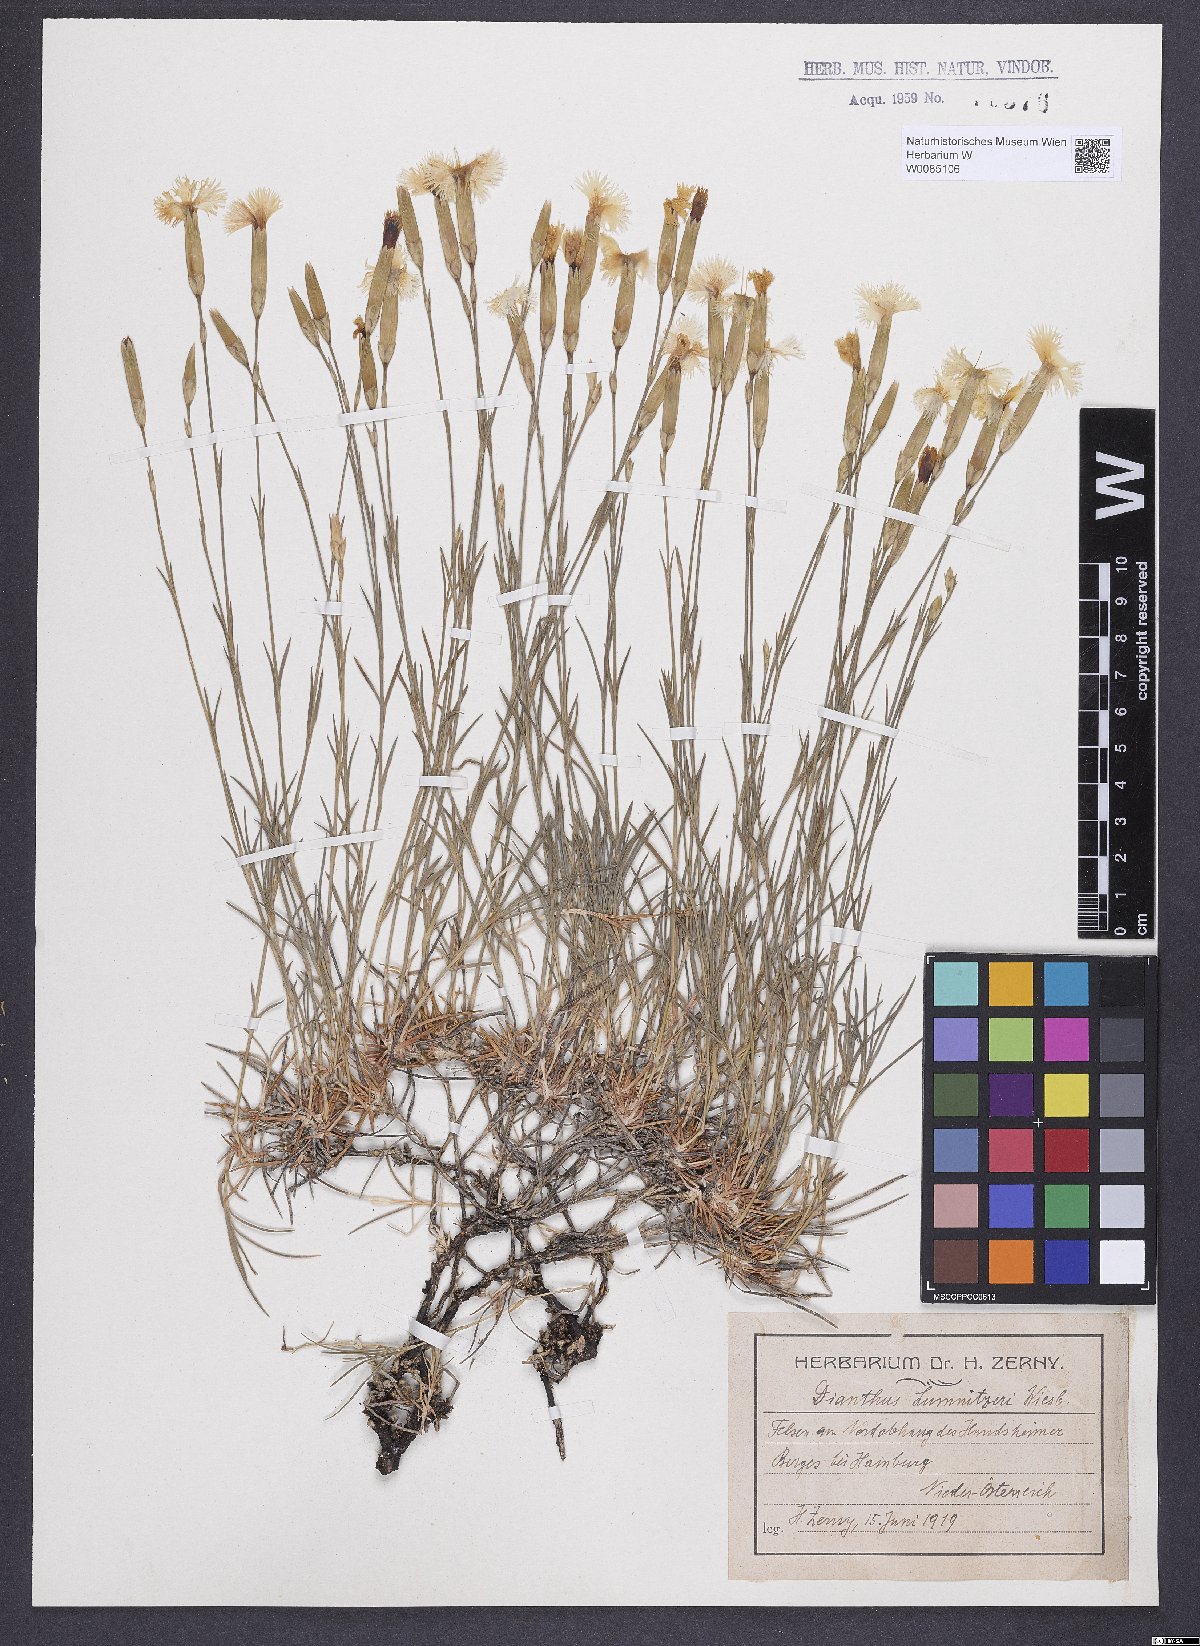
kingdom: Plantae
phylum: Tracheophyta
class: Magnoliopsida
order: Caryophyllales
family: Caryophyllaceae
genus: Dianthus
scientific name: Dianthus praecox
